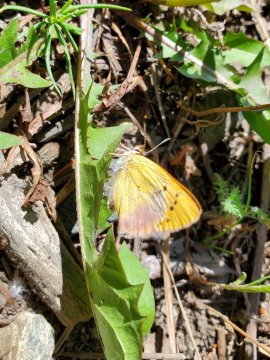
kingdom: Animalia
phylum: Arthropoda
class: Insecta
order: Lepidoptera
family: Lycaenidae
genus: Tharsalea
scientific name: Tharsalea nivalis
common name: Lilac-bordered Copper
